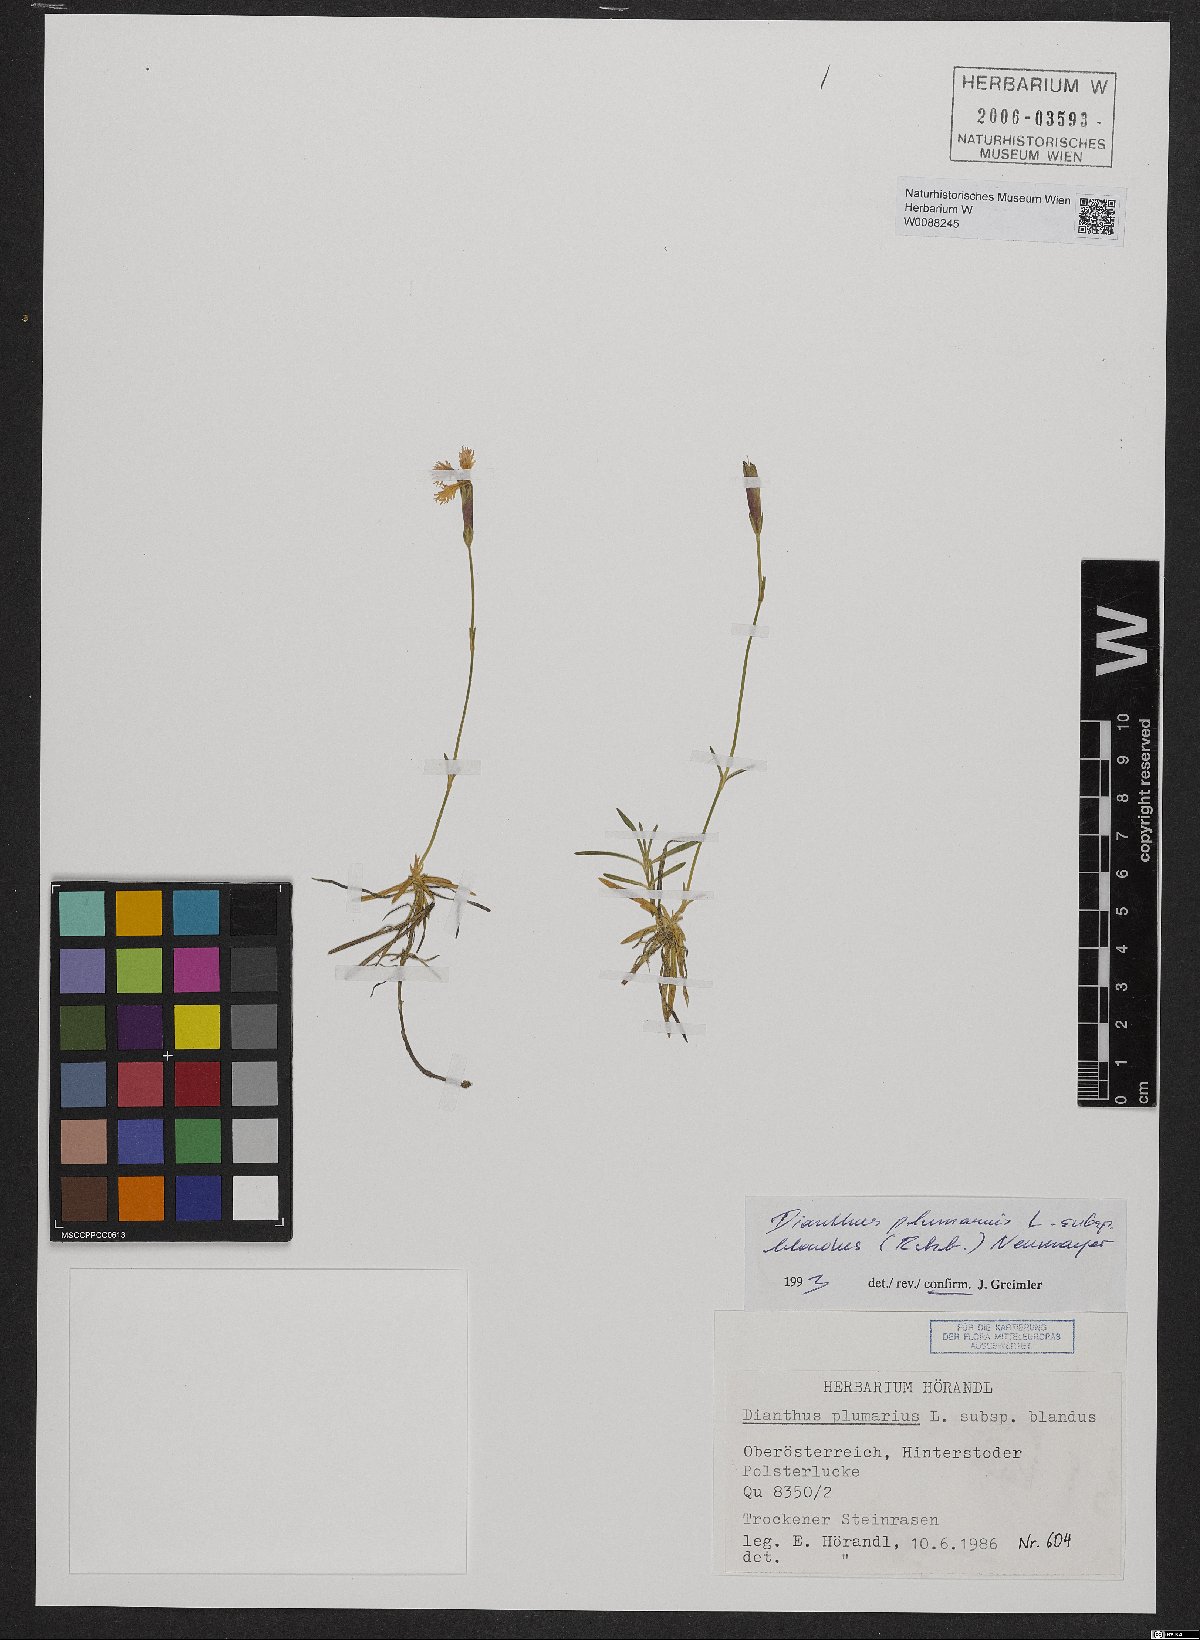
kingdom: Plantae
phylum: Tracheophyta
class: Magnoliopsida
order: Caryophyllales
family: Caryophyllaceae
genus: Dianthus
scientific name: Dianthus plumarius
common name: Pink
